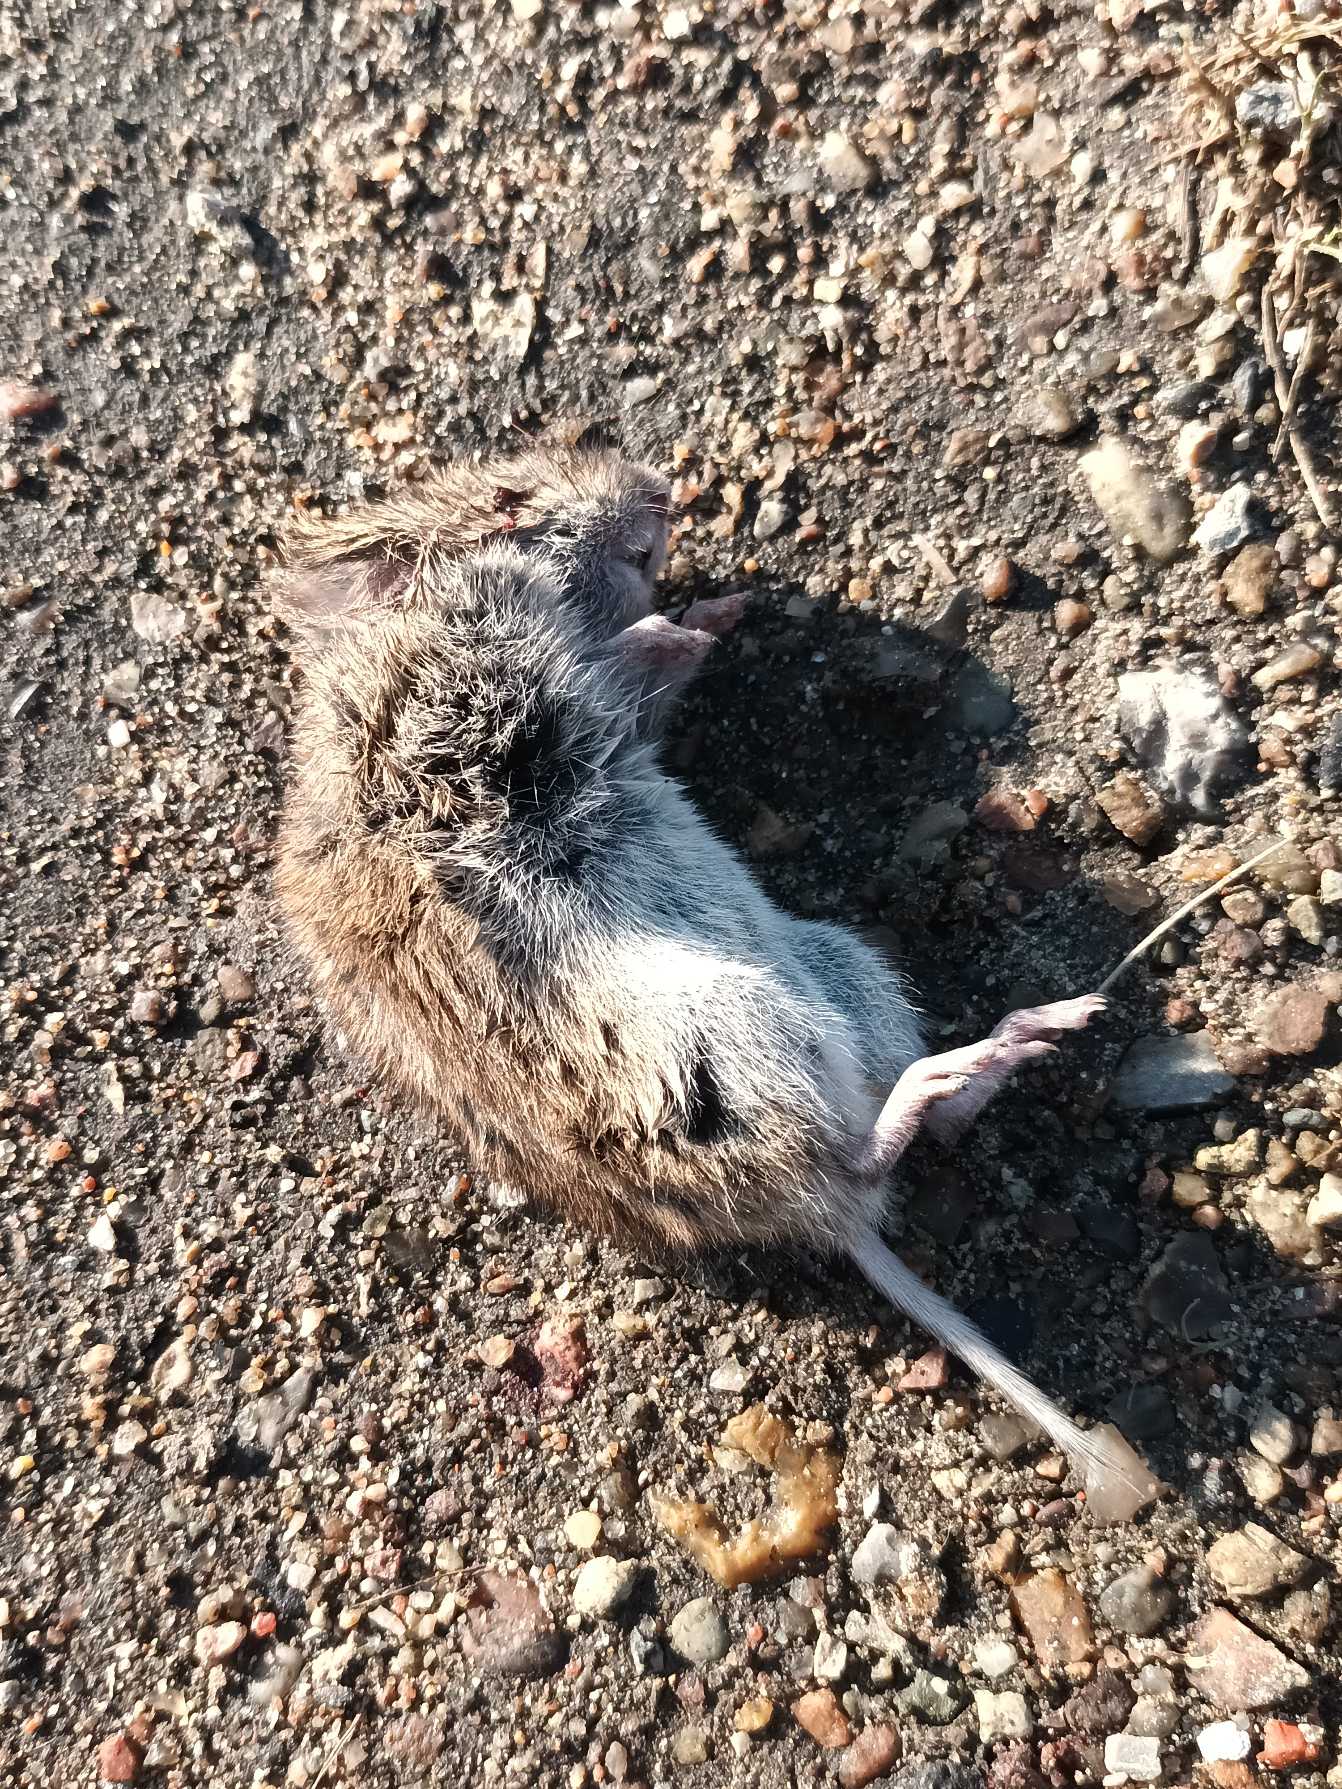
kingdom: Animalia
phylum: Chordata
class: Mammalia
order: Rodentia
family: Cricetidae
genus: Microtus
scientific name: Microtus agrestis
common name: Almindelig markmus
